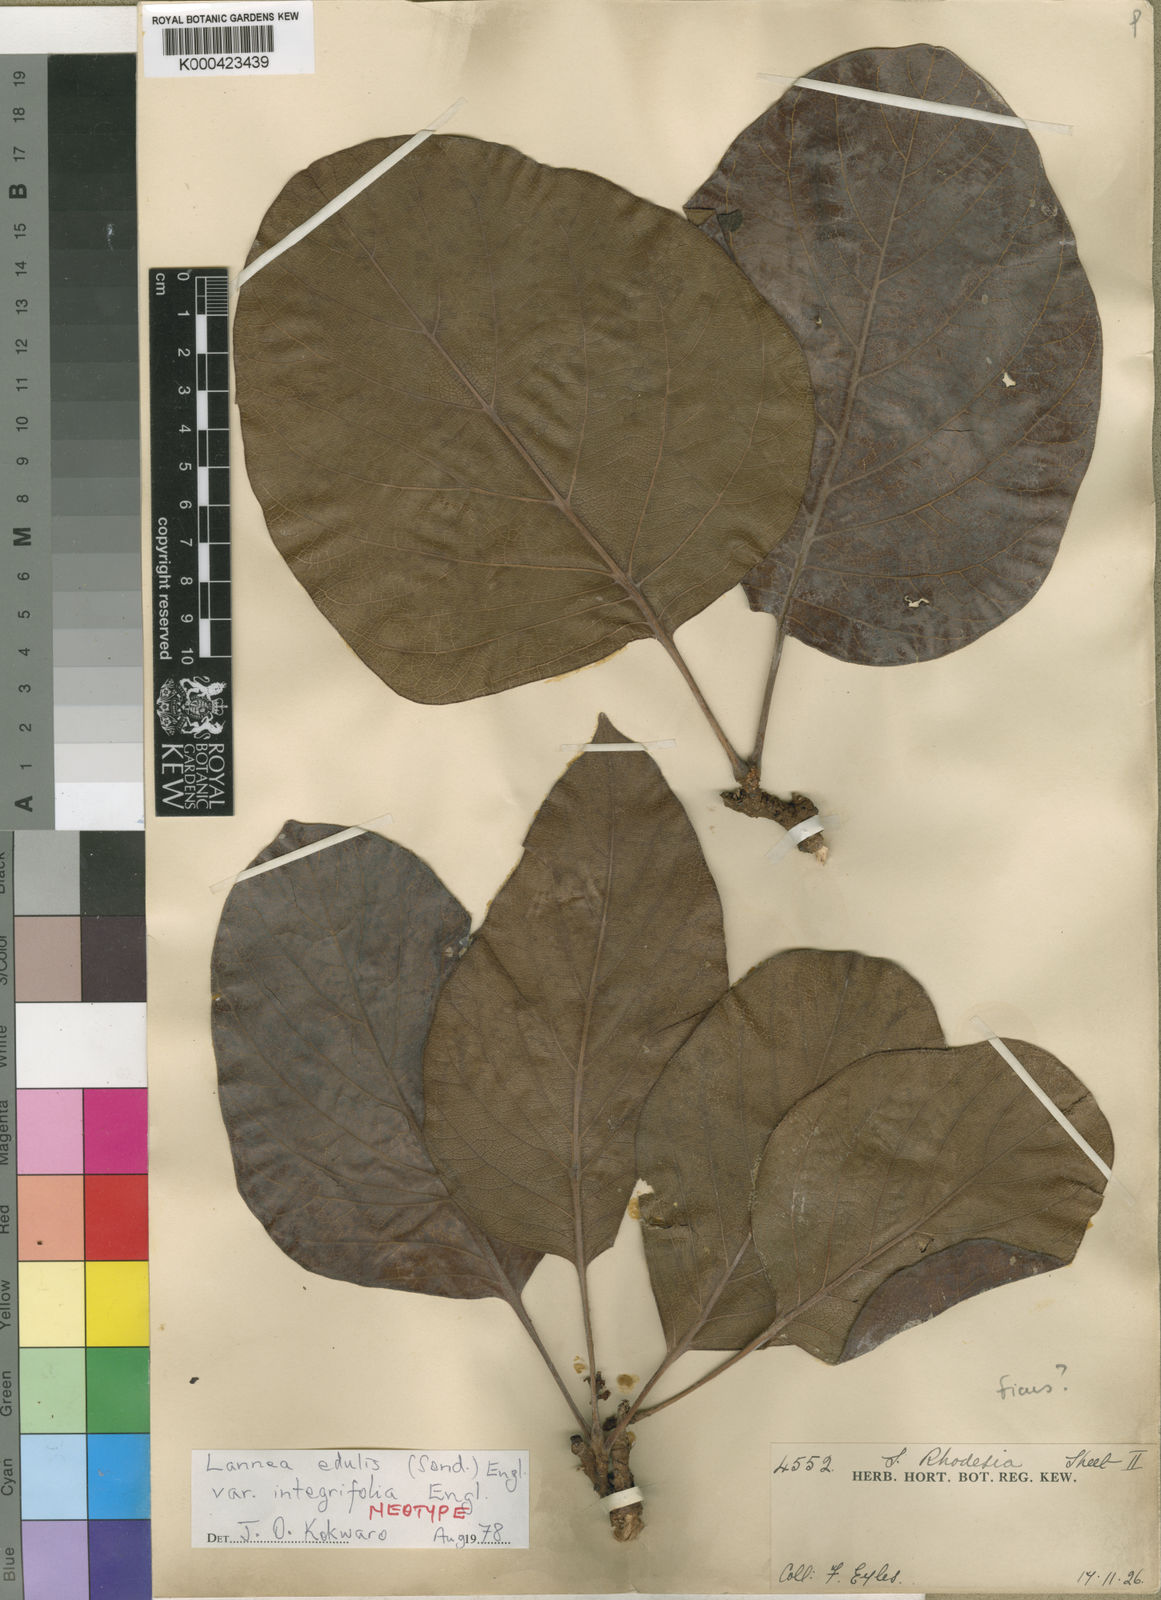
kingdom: Plantae
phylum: Tracheophyta
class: Magnoliopsida
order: Sapindales
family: Anacardiaceae
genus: Lannea
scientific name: Lannea edulis
